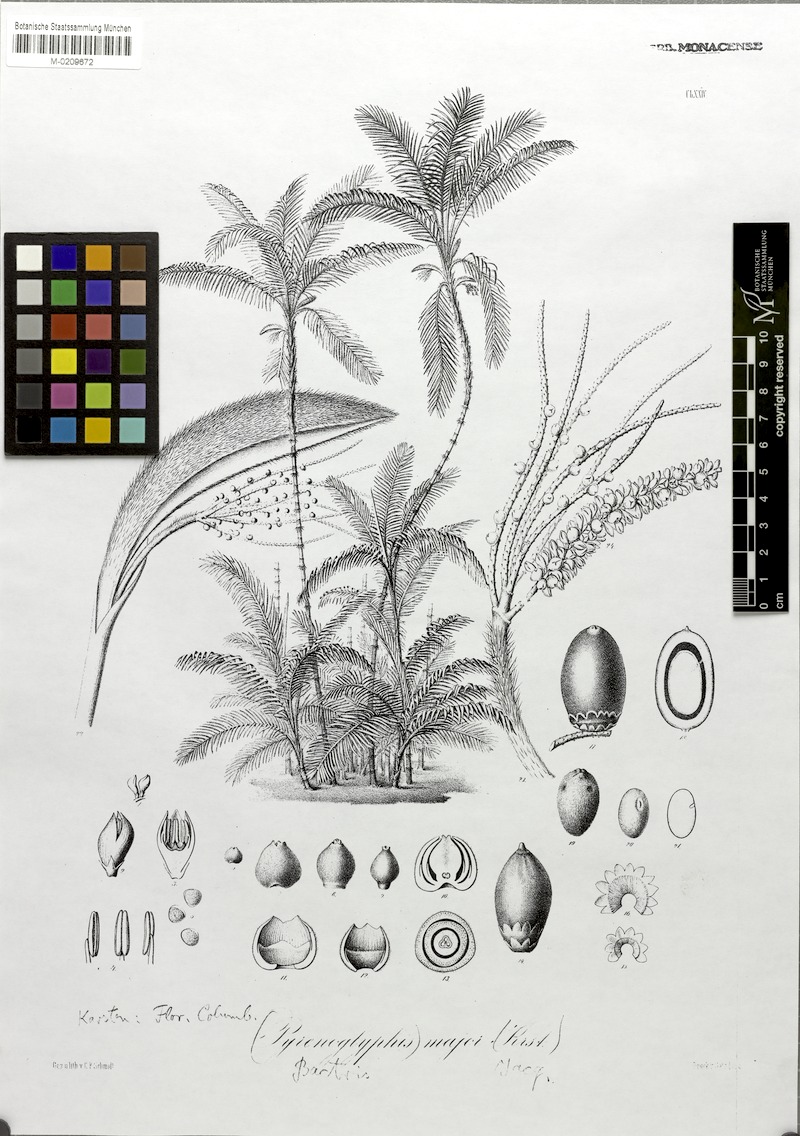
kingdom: Plantae
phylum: Tracheophyta
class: Liliopsida
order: Arecales
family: Arecaceae
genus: Bactris
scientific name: Bactris major
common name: Beach palm
